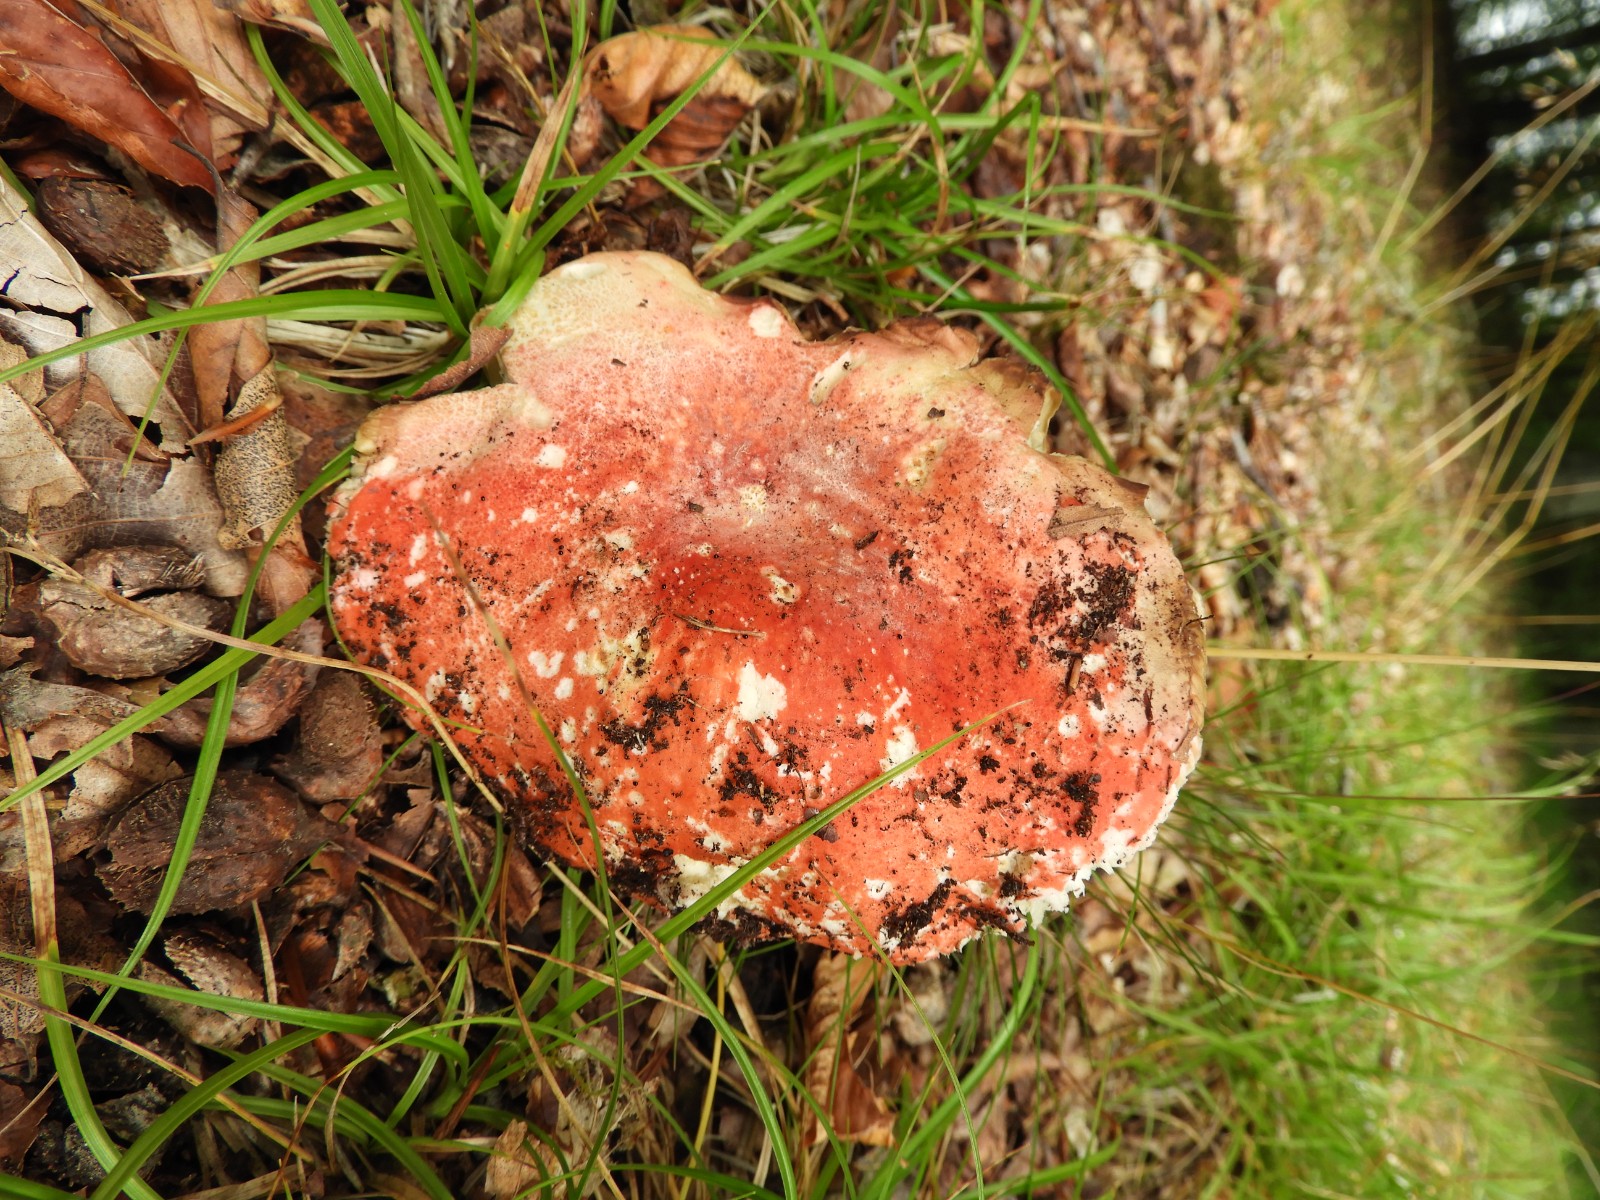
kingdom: Fungi
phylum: Basidiomycota
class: Agaricomycetes
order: Russulales
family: Russulaceae
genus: Russula
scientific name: Russula pseudointegra
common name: cinnoberrød skørhat
